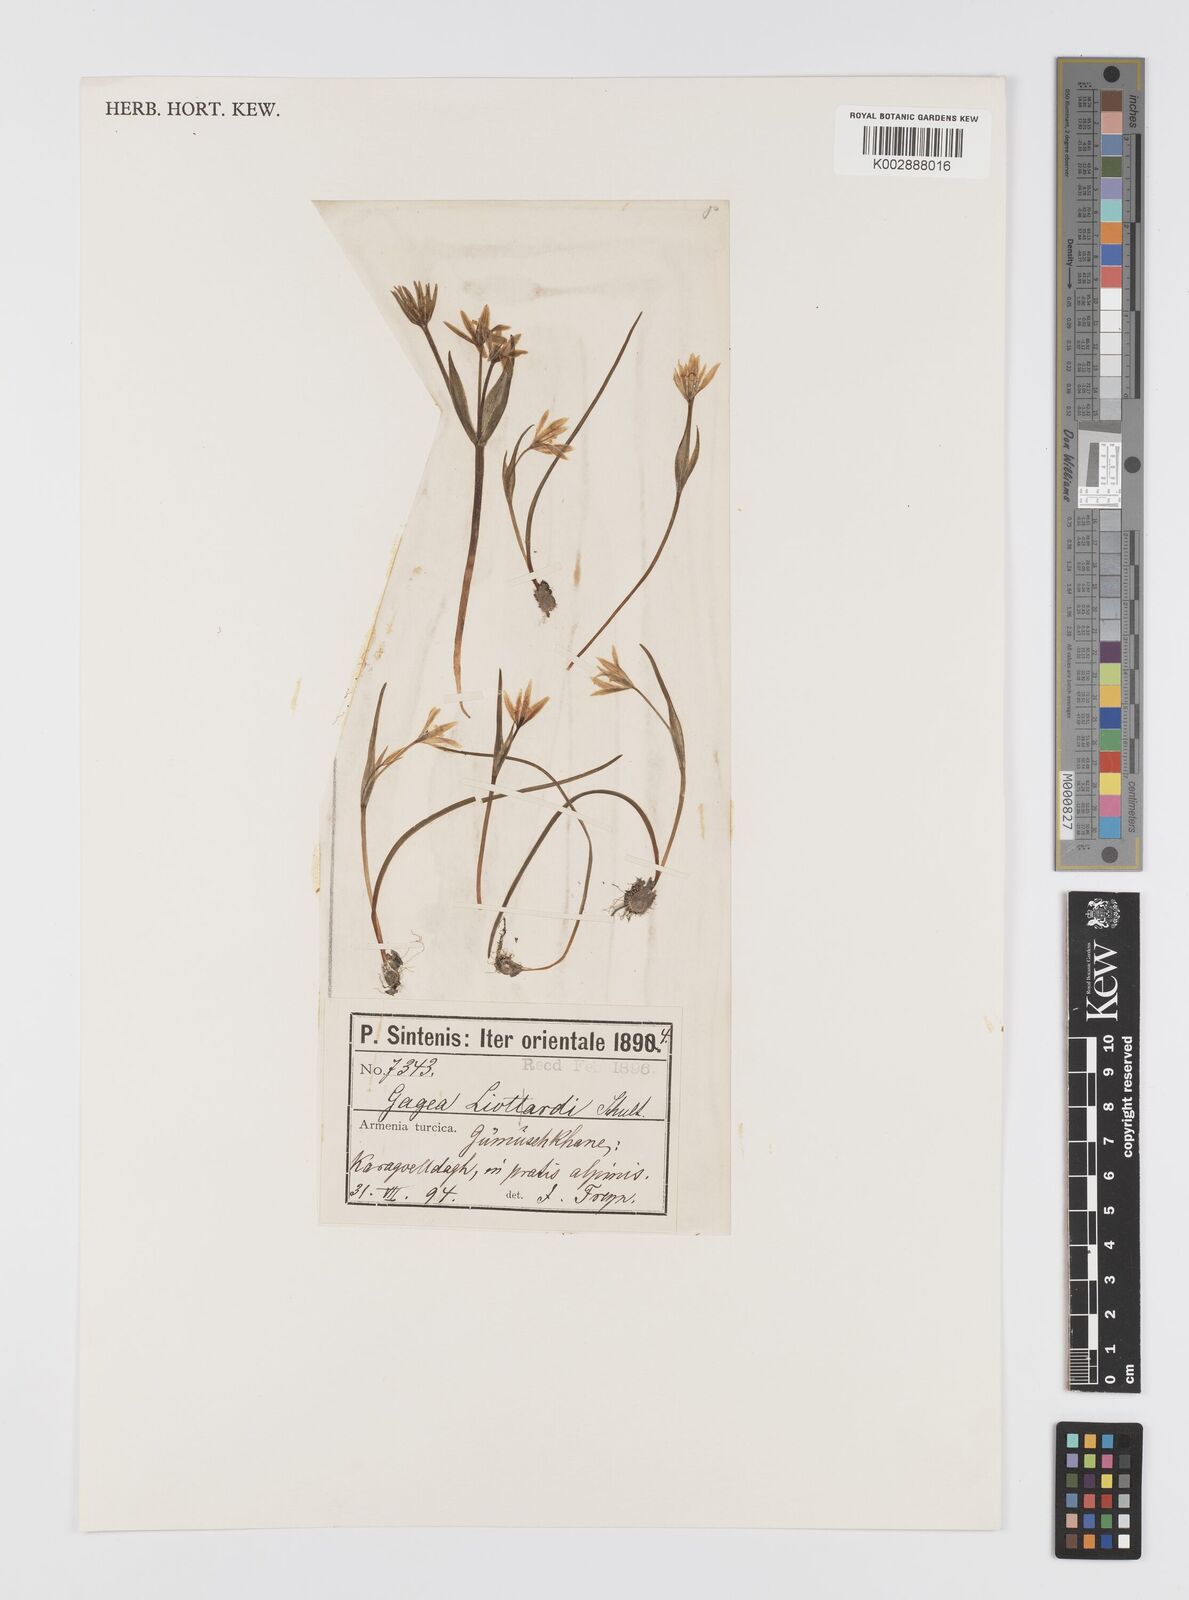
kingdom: Plantae
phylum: Tracheophyta
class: Liliopsida
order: Liliales
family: Liliaceae
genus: Gagea
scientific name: Gagea fragifera
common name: Lily
